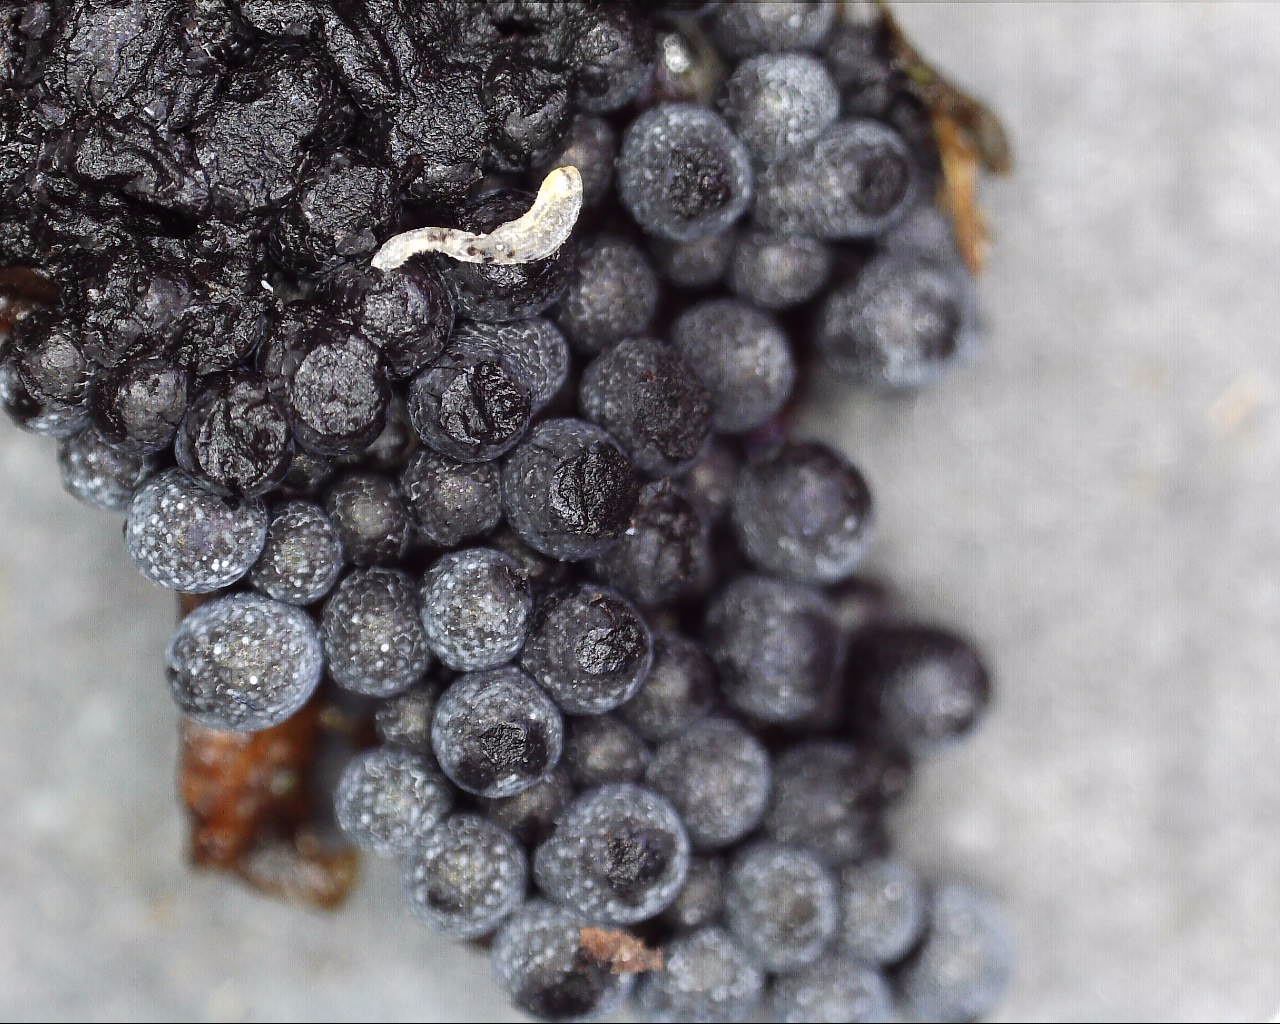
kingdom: Protozoa
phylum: Mycetozoa
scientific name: Mycetozoa
